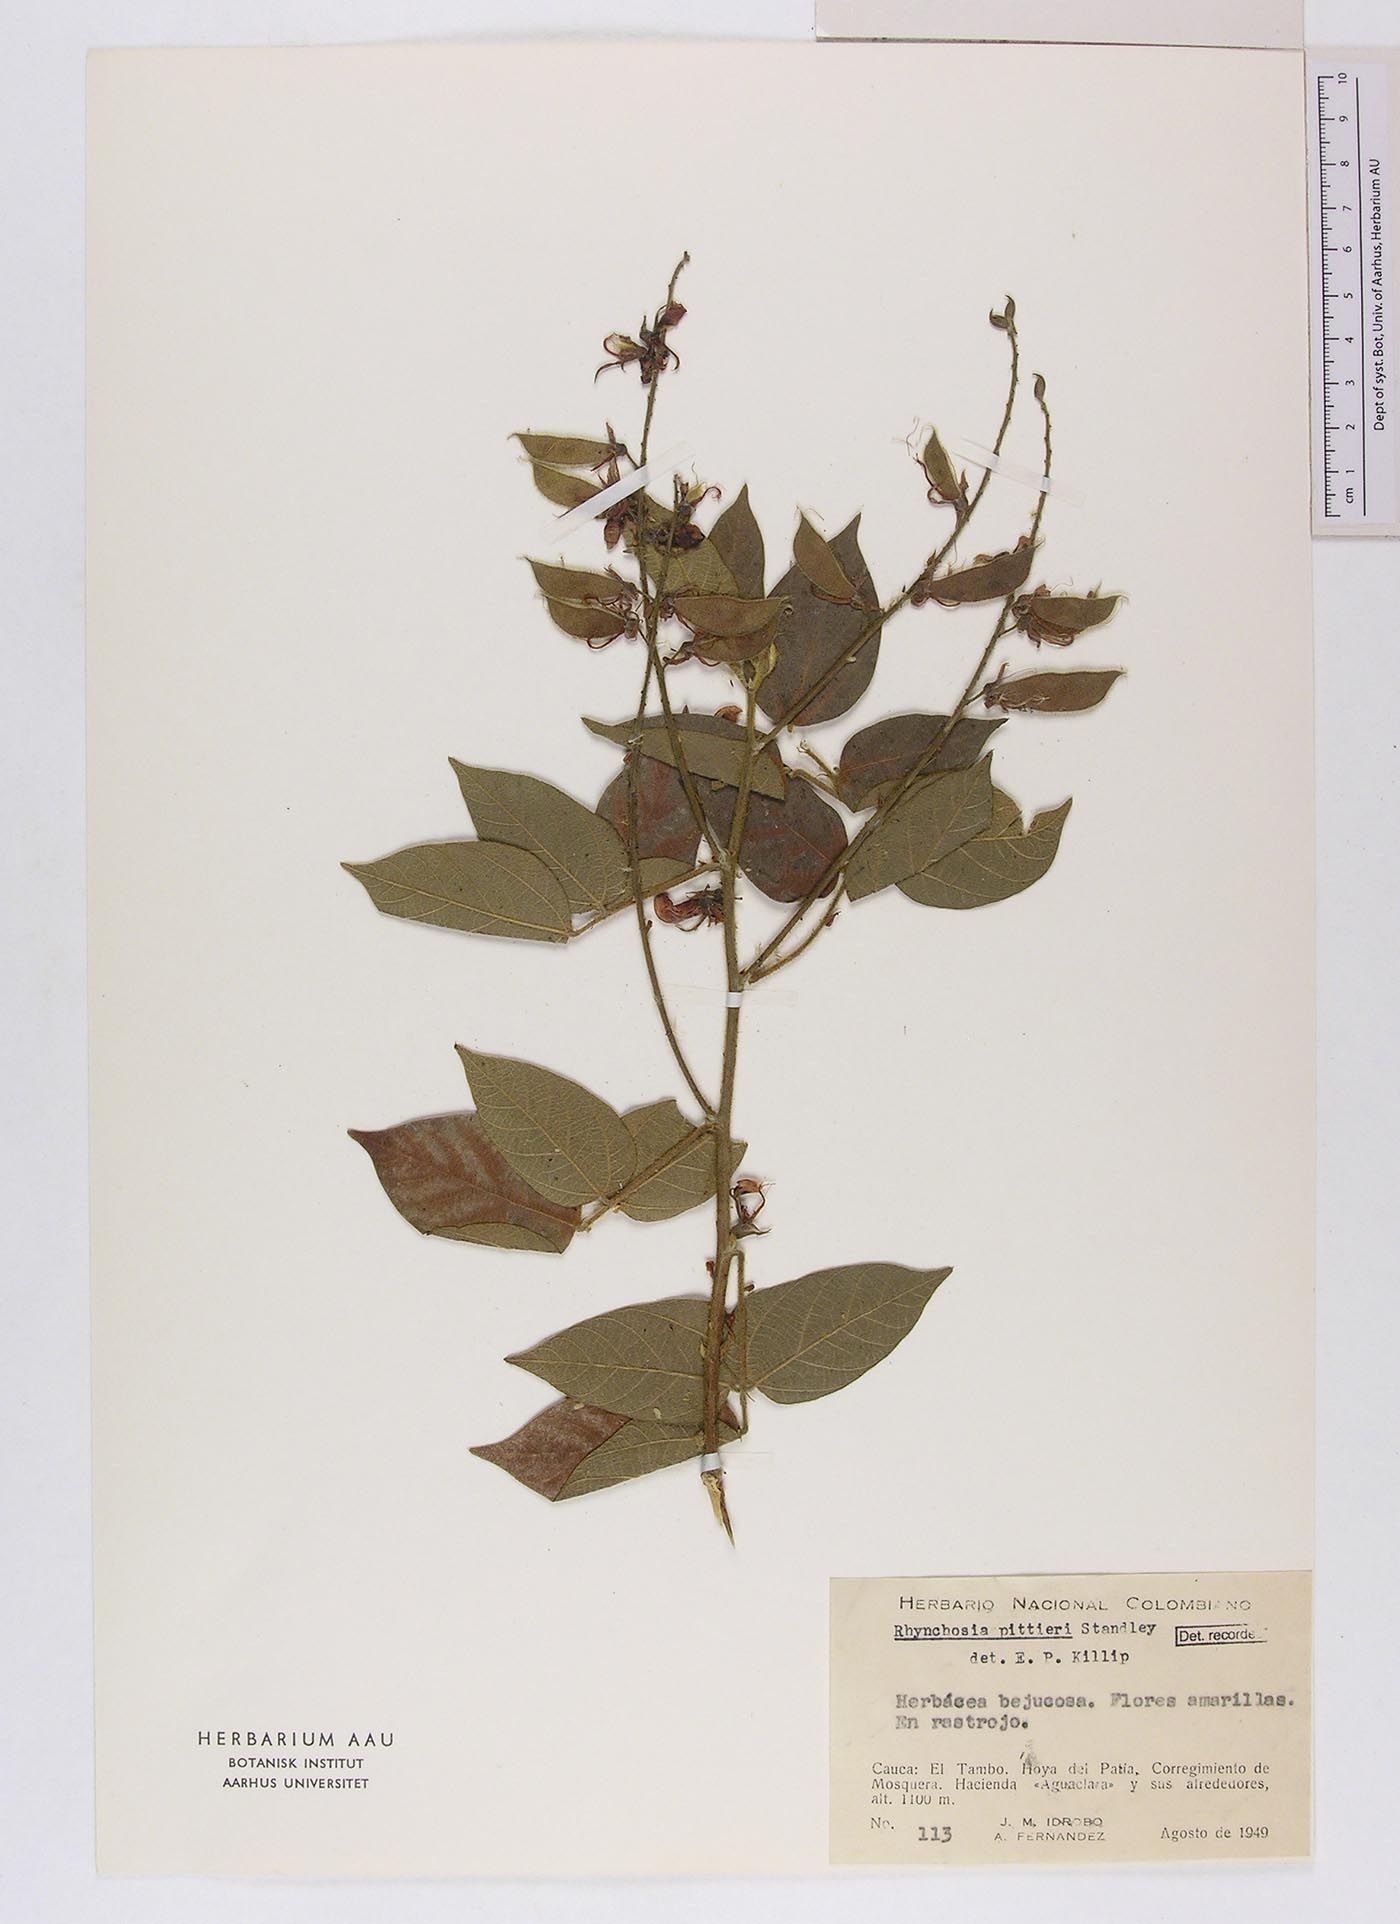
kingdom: Plantae
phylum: Tracheophyta
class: Magnoliopsida
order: Fabales
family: Fabaceae
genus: Rhynchosia
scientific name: Rhynchosia schomburgkii
